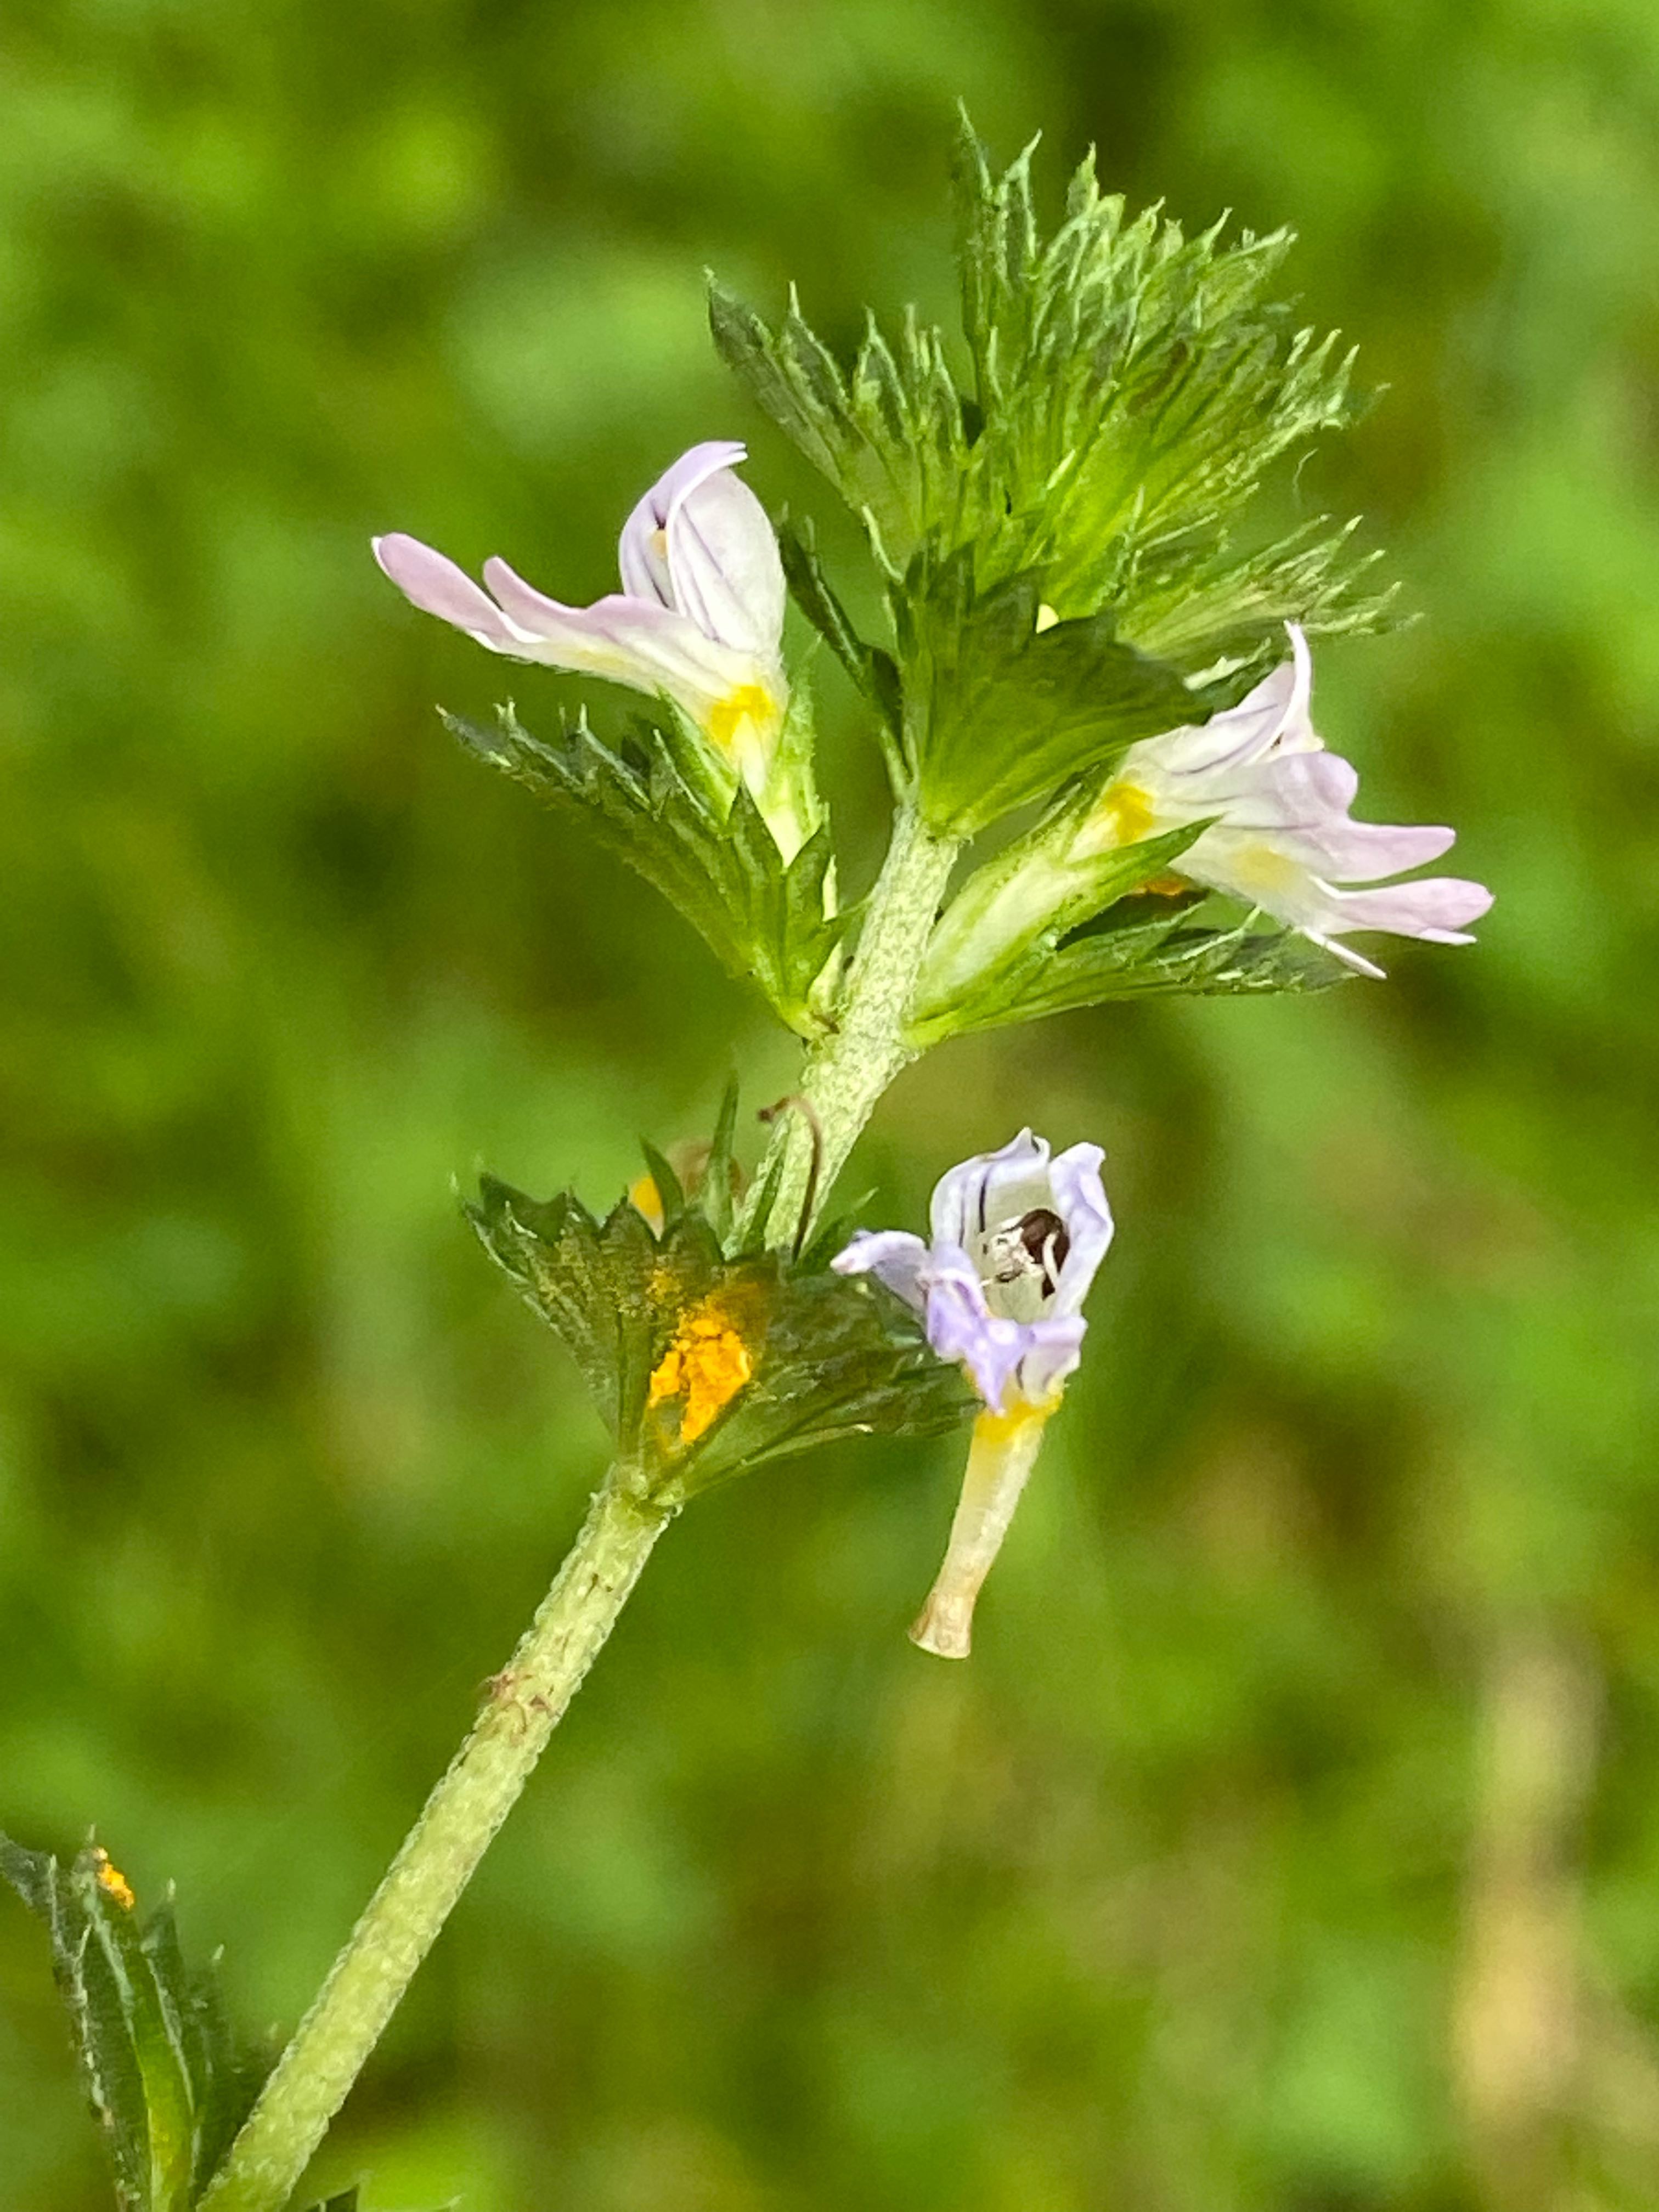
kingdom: Fungi
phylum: Basidiomycota
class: Pucciniomycetes
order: Pucciniales
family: Coleosporiaceae
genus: Coleosporium
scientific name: Coleosporium tussilaginis
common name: almindelig fyrrenålerust
